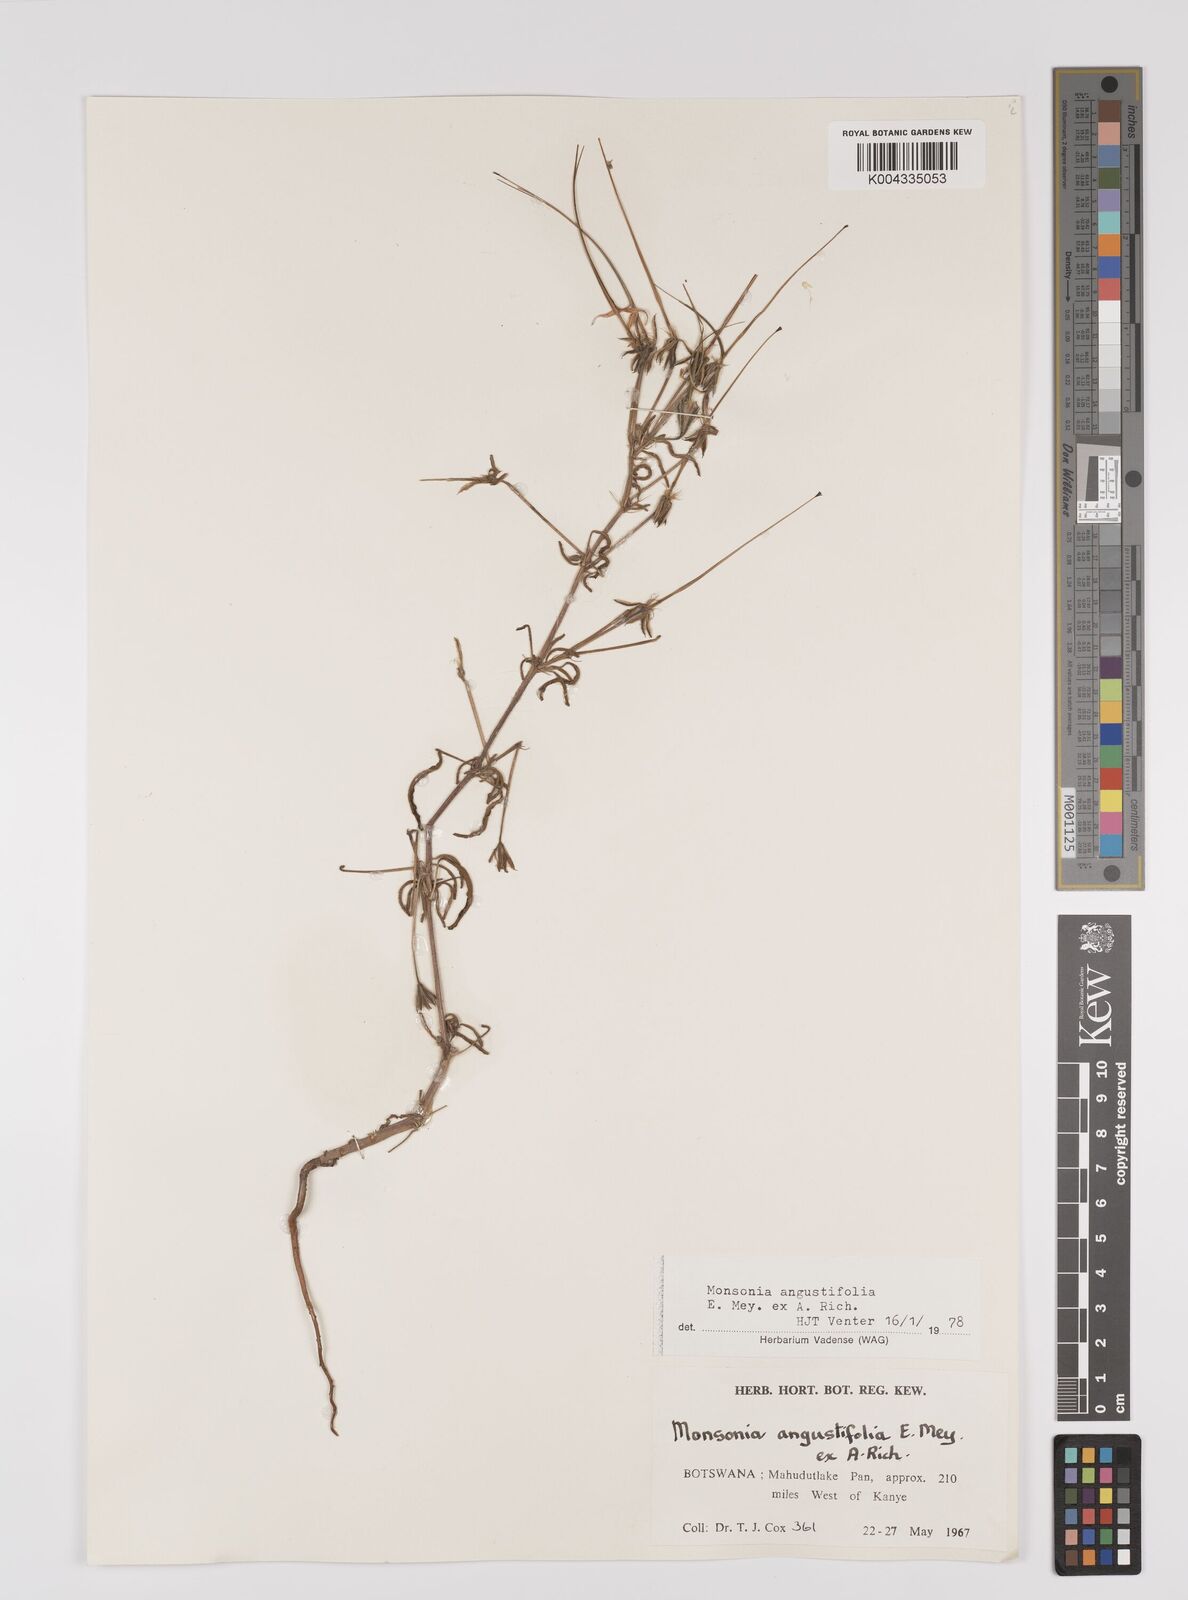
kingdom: Plantae
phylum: Tracheophyta
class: Magnoliopsida
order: Geraniales
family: Geraniaceae
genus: Monsonia
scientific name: Monsonia angustifolia
